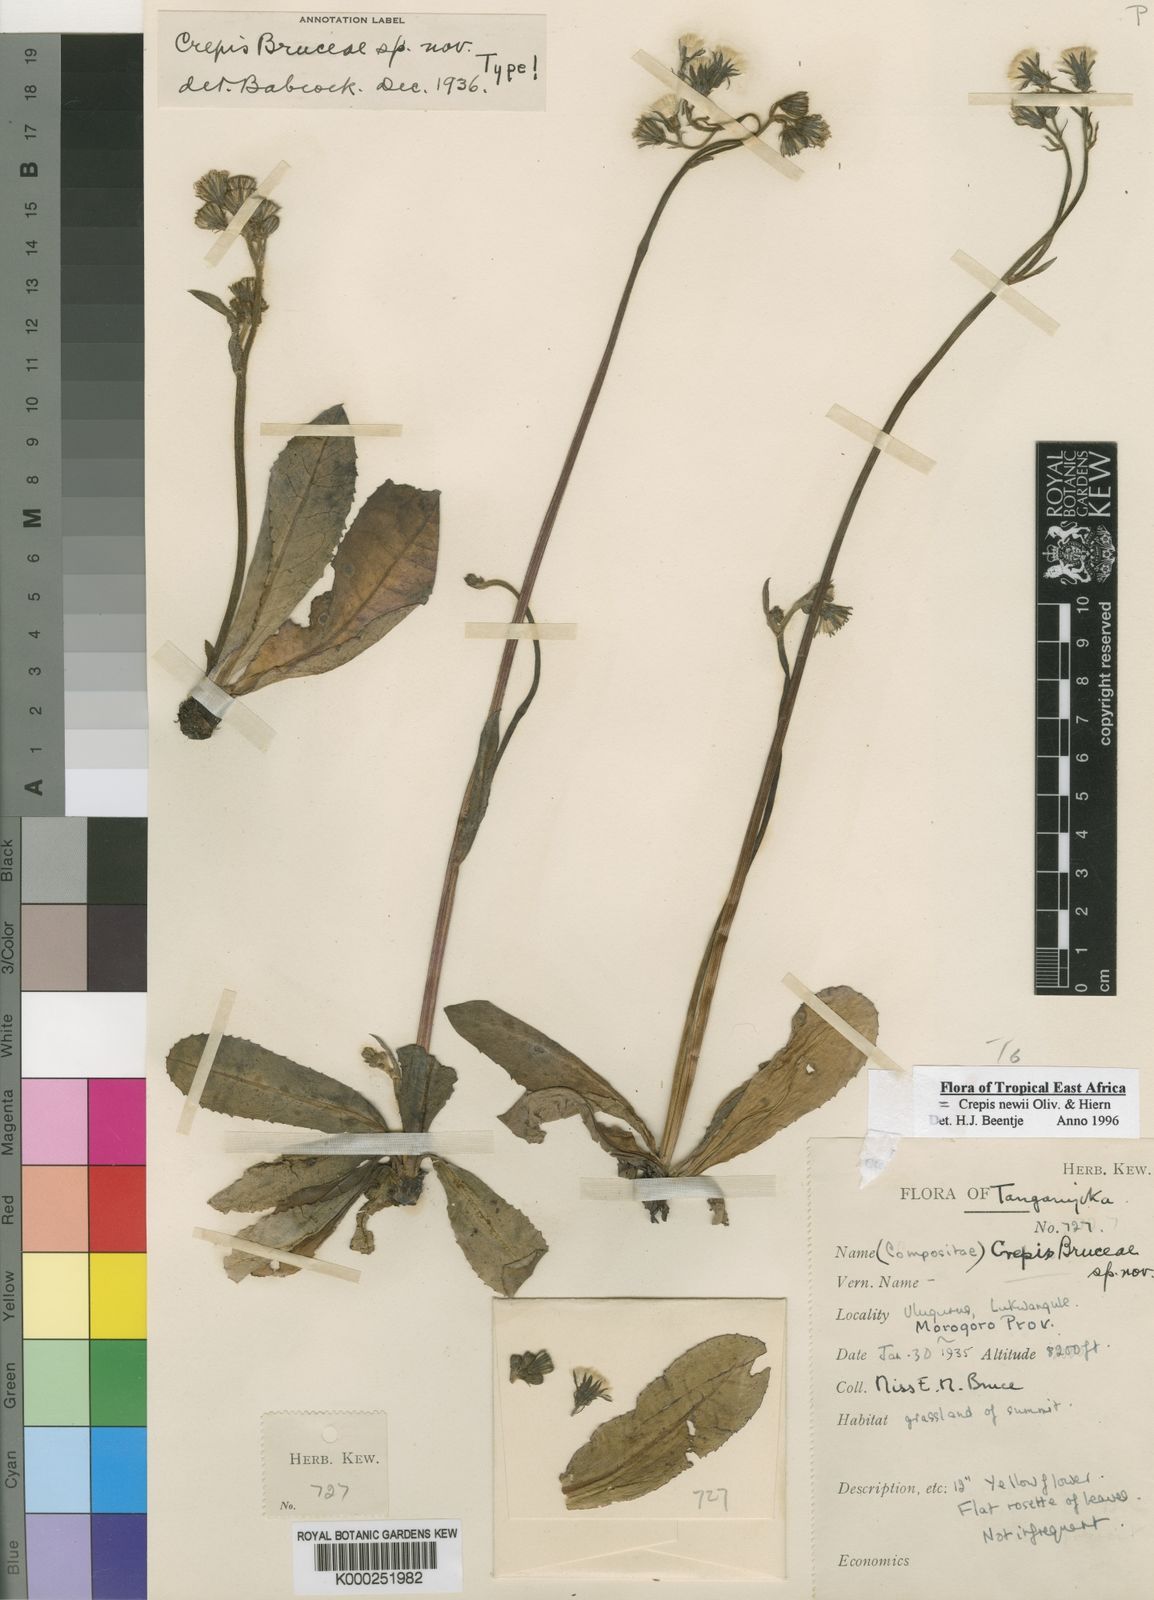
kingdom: Plantae
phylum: Tracheophyta
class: Magnoliopsida
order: Asterales
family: Asteraceae
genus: Crepis
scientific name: Crepis
